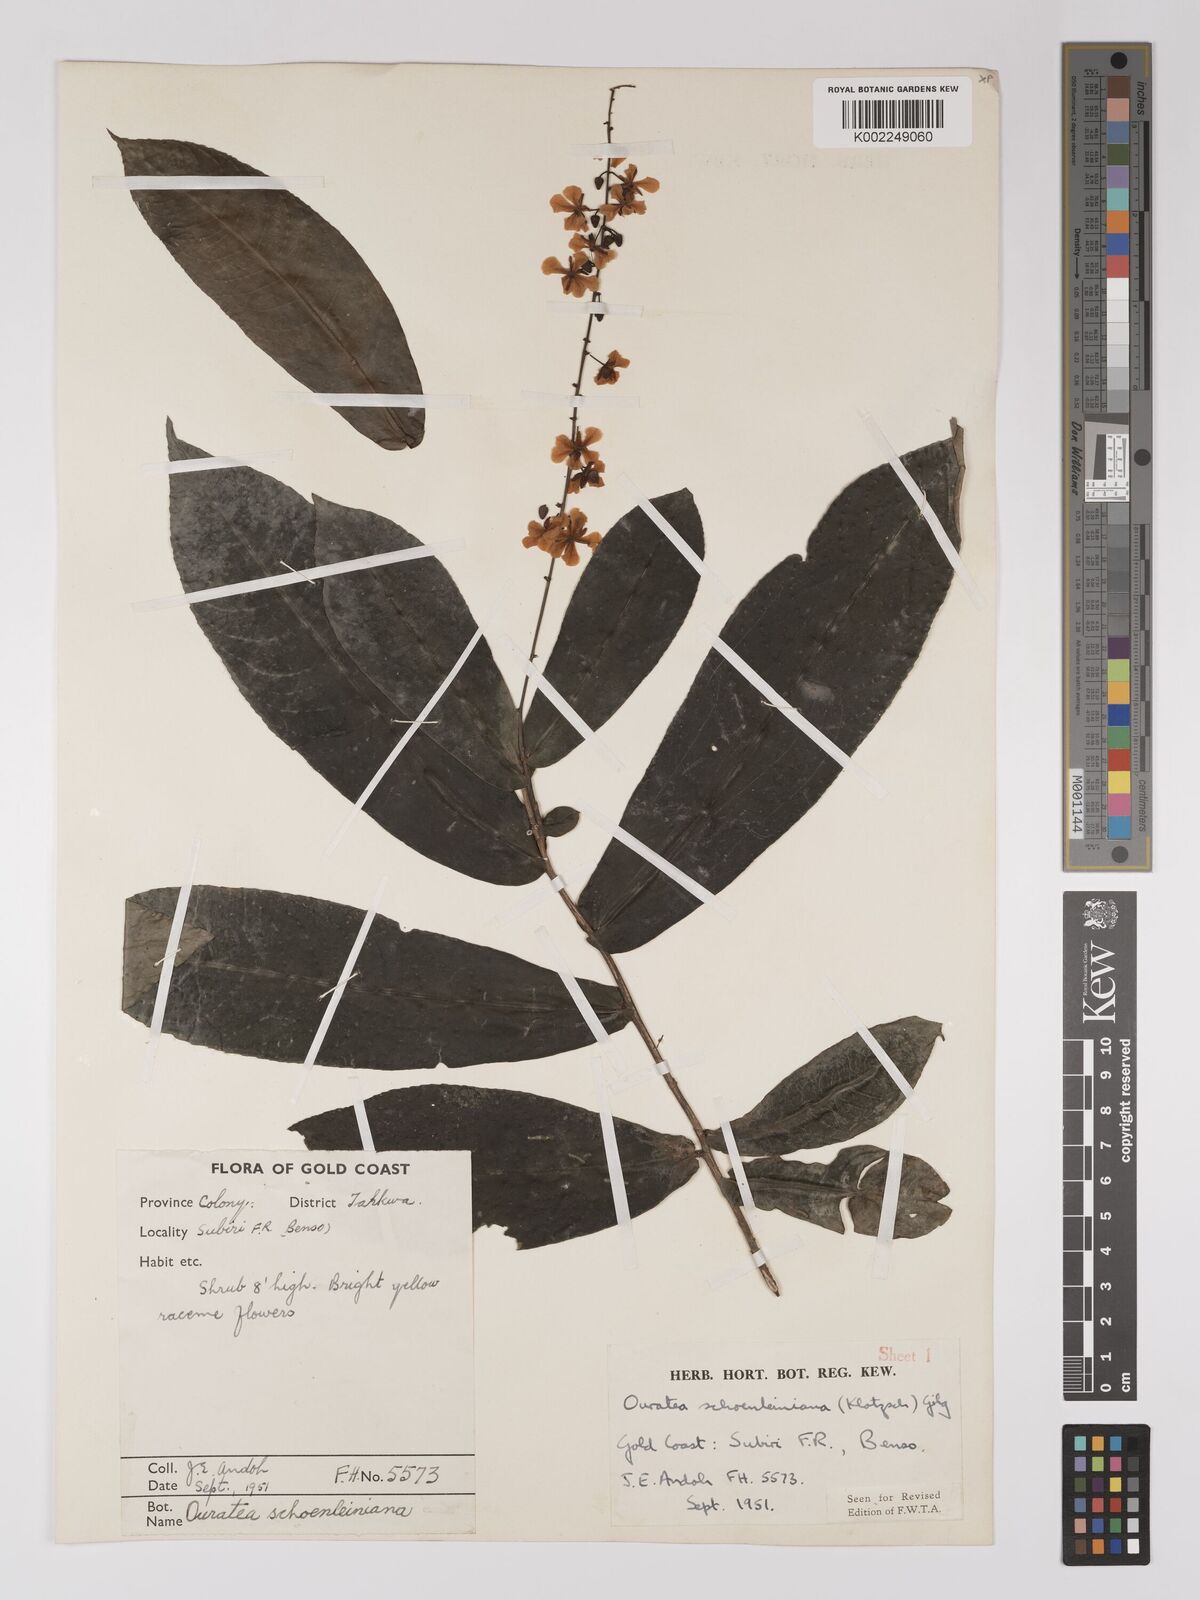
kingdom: Plantae
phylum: Tracheophyta
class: Magnoliopsida
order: Malpighiales
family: Ochnaceae
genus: Campylospermum
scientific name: Campylospermum schoenleinianum
